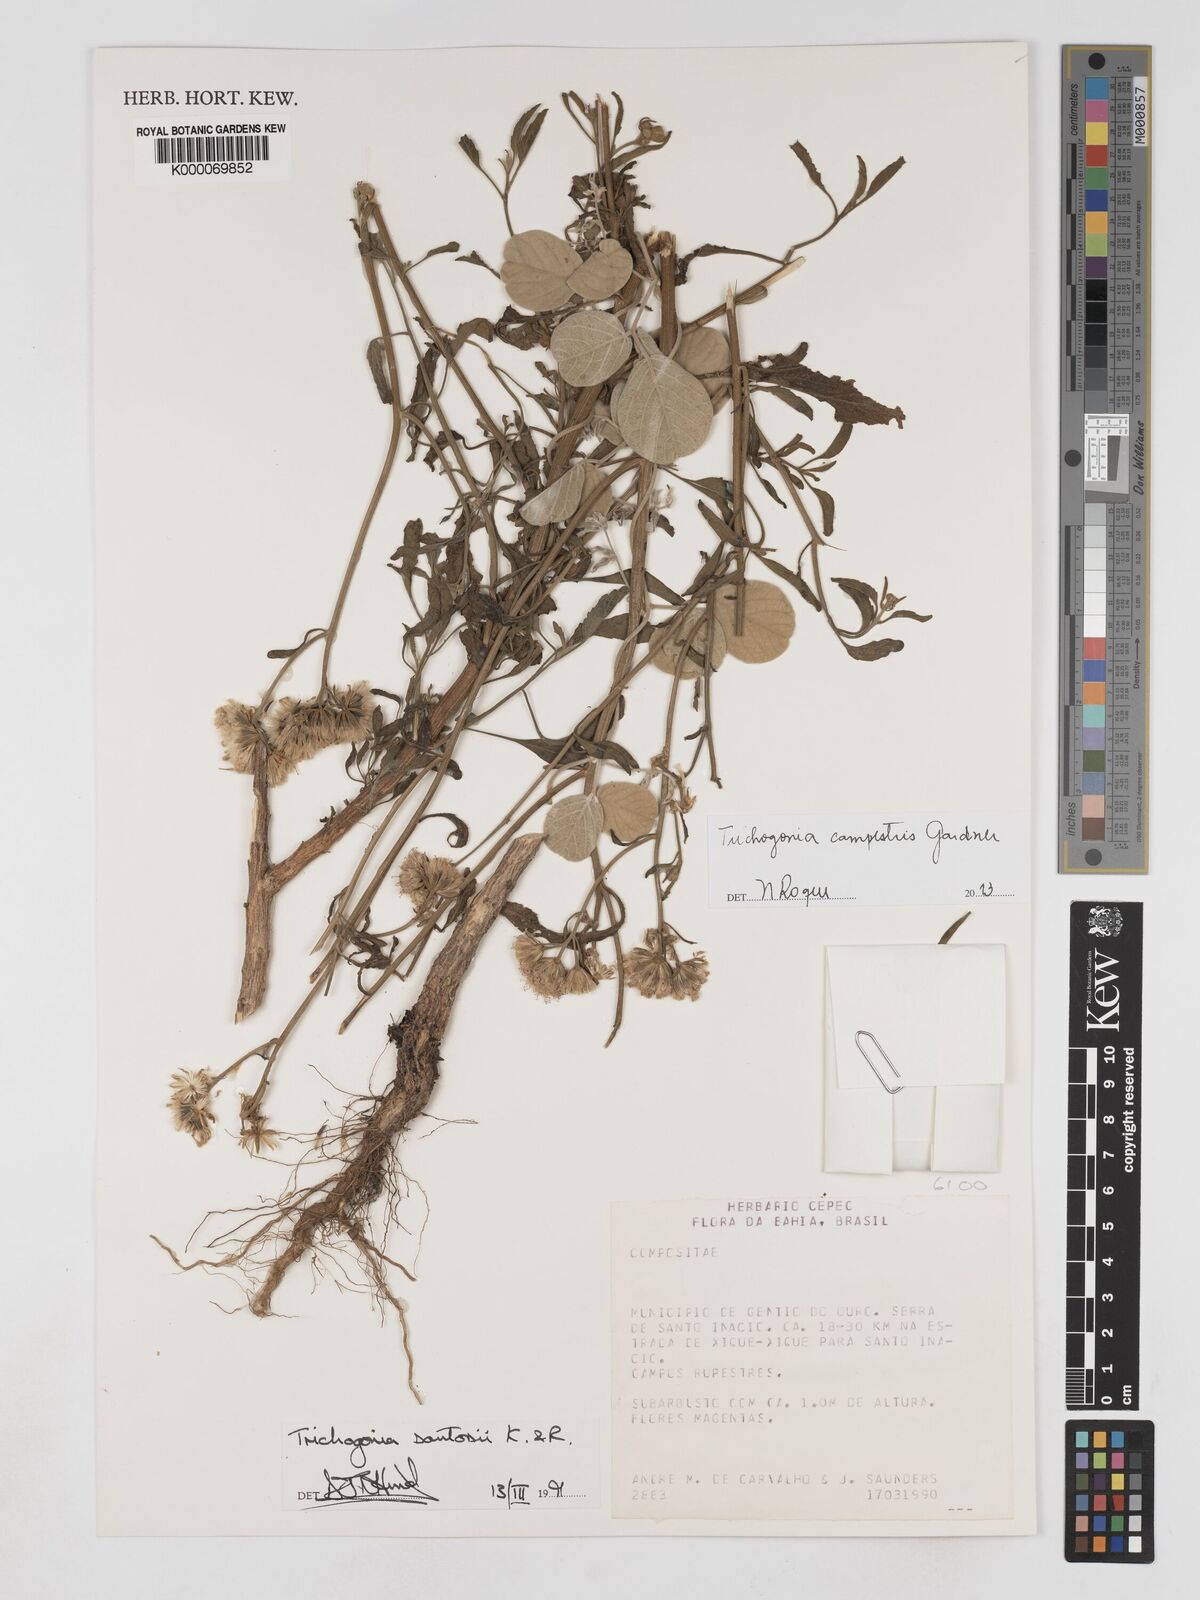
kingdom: Plantae
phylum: Tracheophyta
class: Magnoliopsida
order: Asterales
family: Asteraceae
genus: Trichogonia
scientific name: Trichogonia santosii
